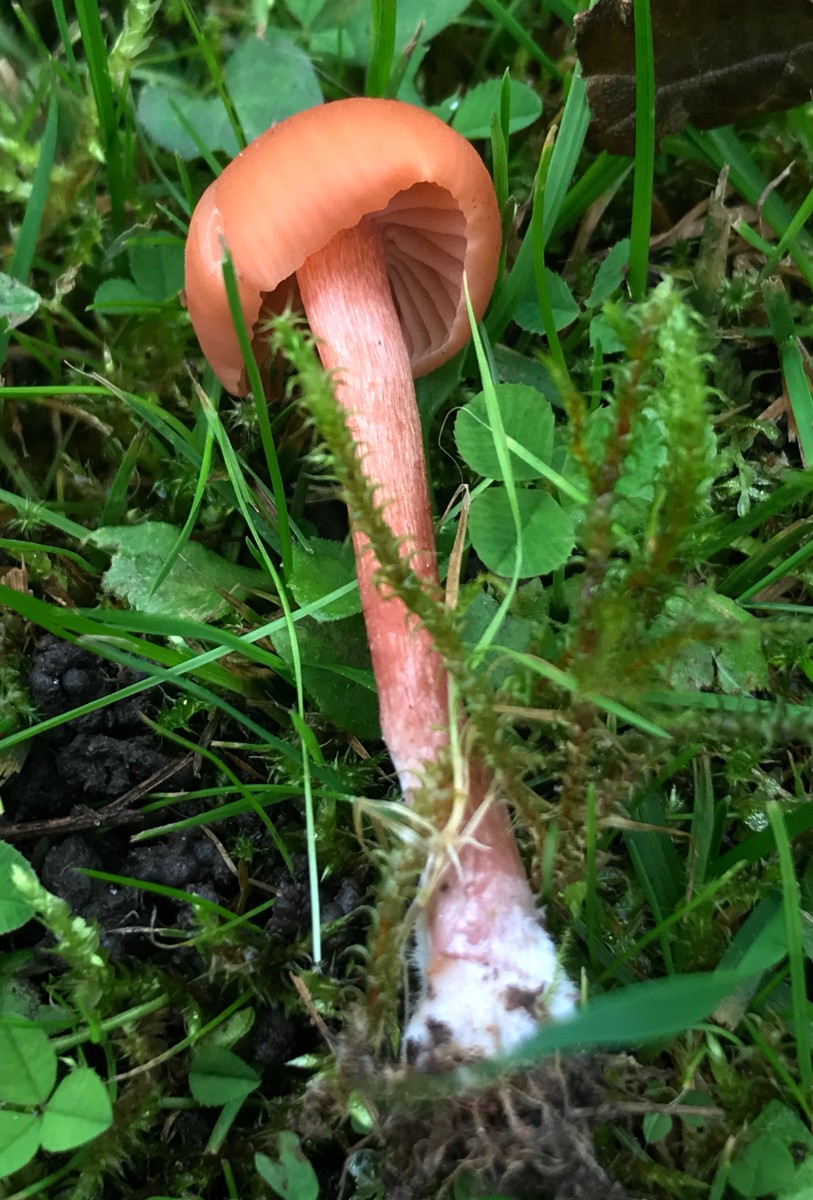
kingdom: Fungi
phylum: Basidiomycota
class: Agaricomycetes
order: Agaricales
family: Hydnangiaceae
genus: Laccaria
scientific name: Laccaria laccata
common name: rød ametysthat
